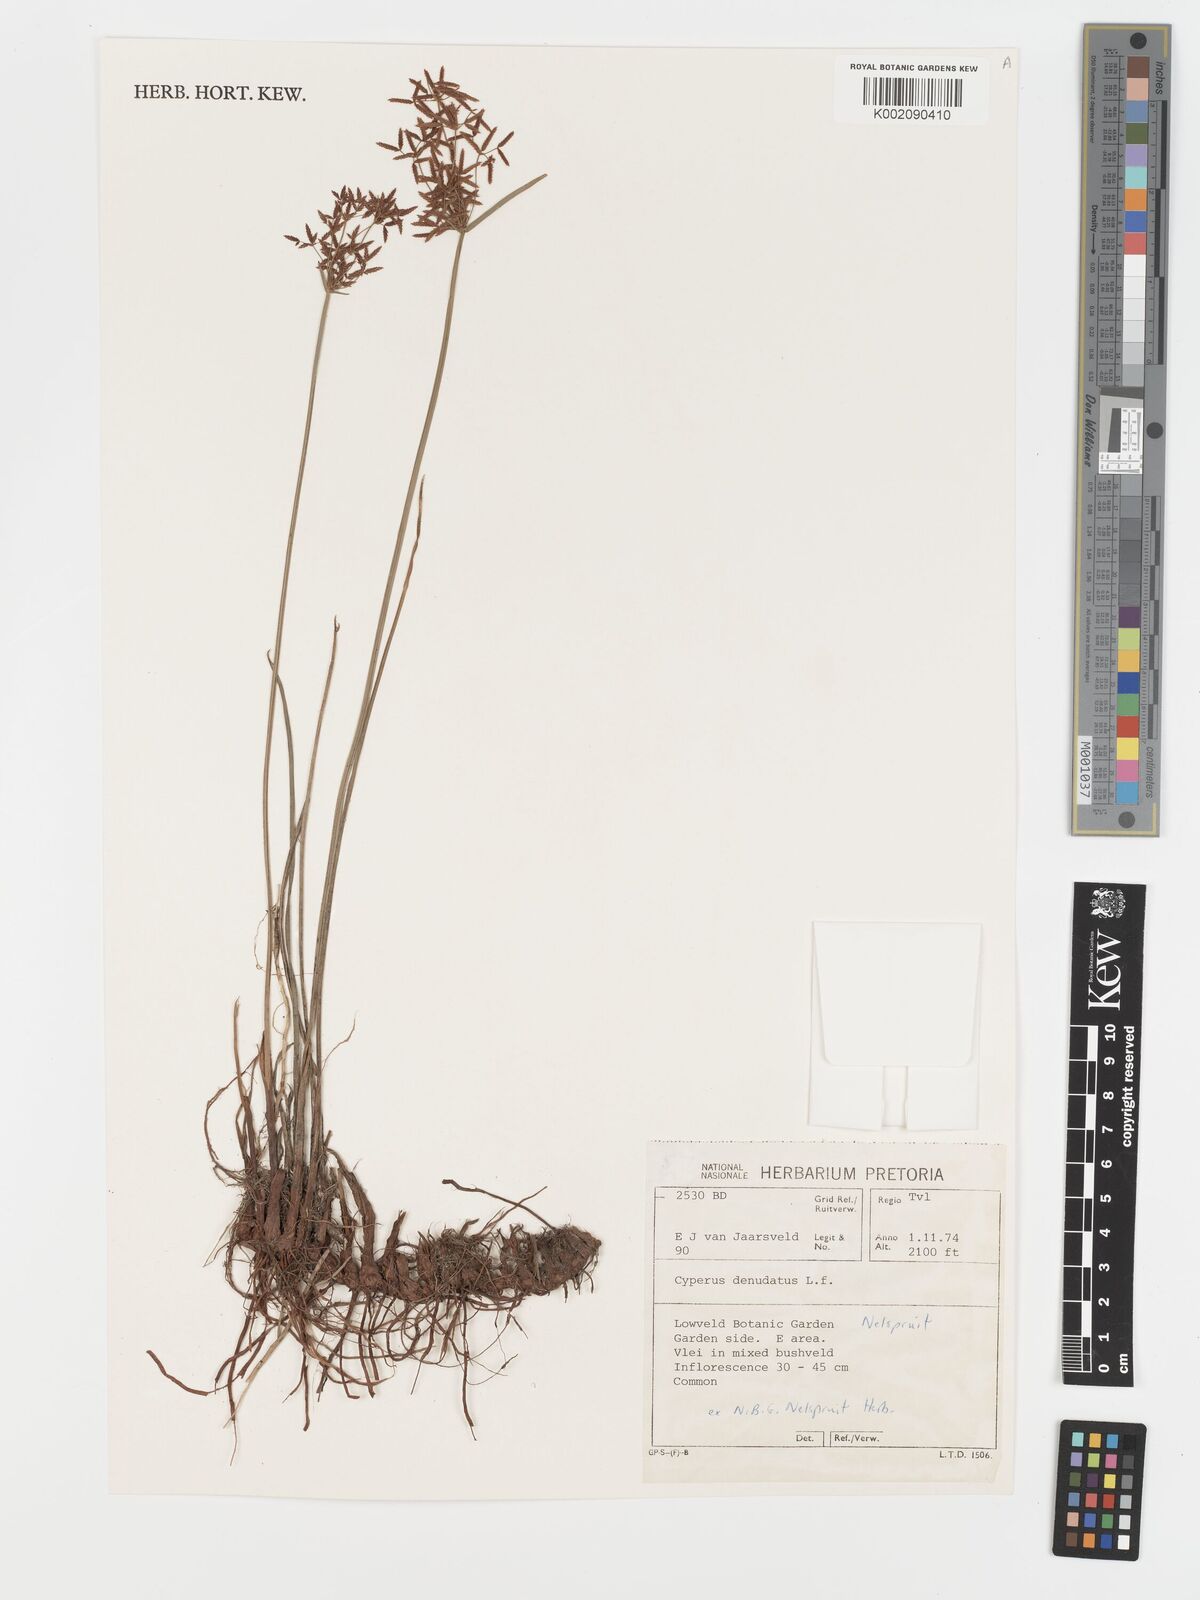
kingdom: Plantae
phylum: Tracheophyta
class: Liliopsida
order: Poales
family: Cyperaceae
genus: Cyperus
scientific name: Cyperus denudatus
